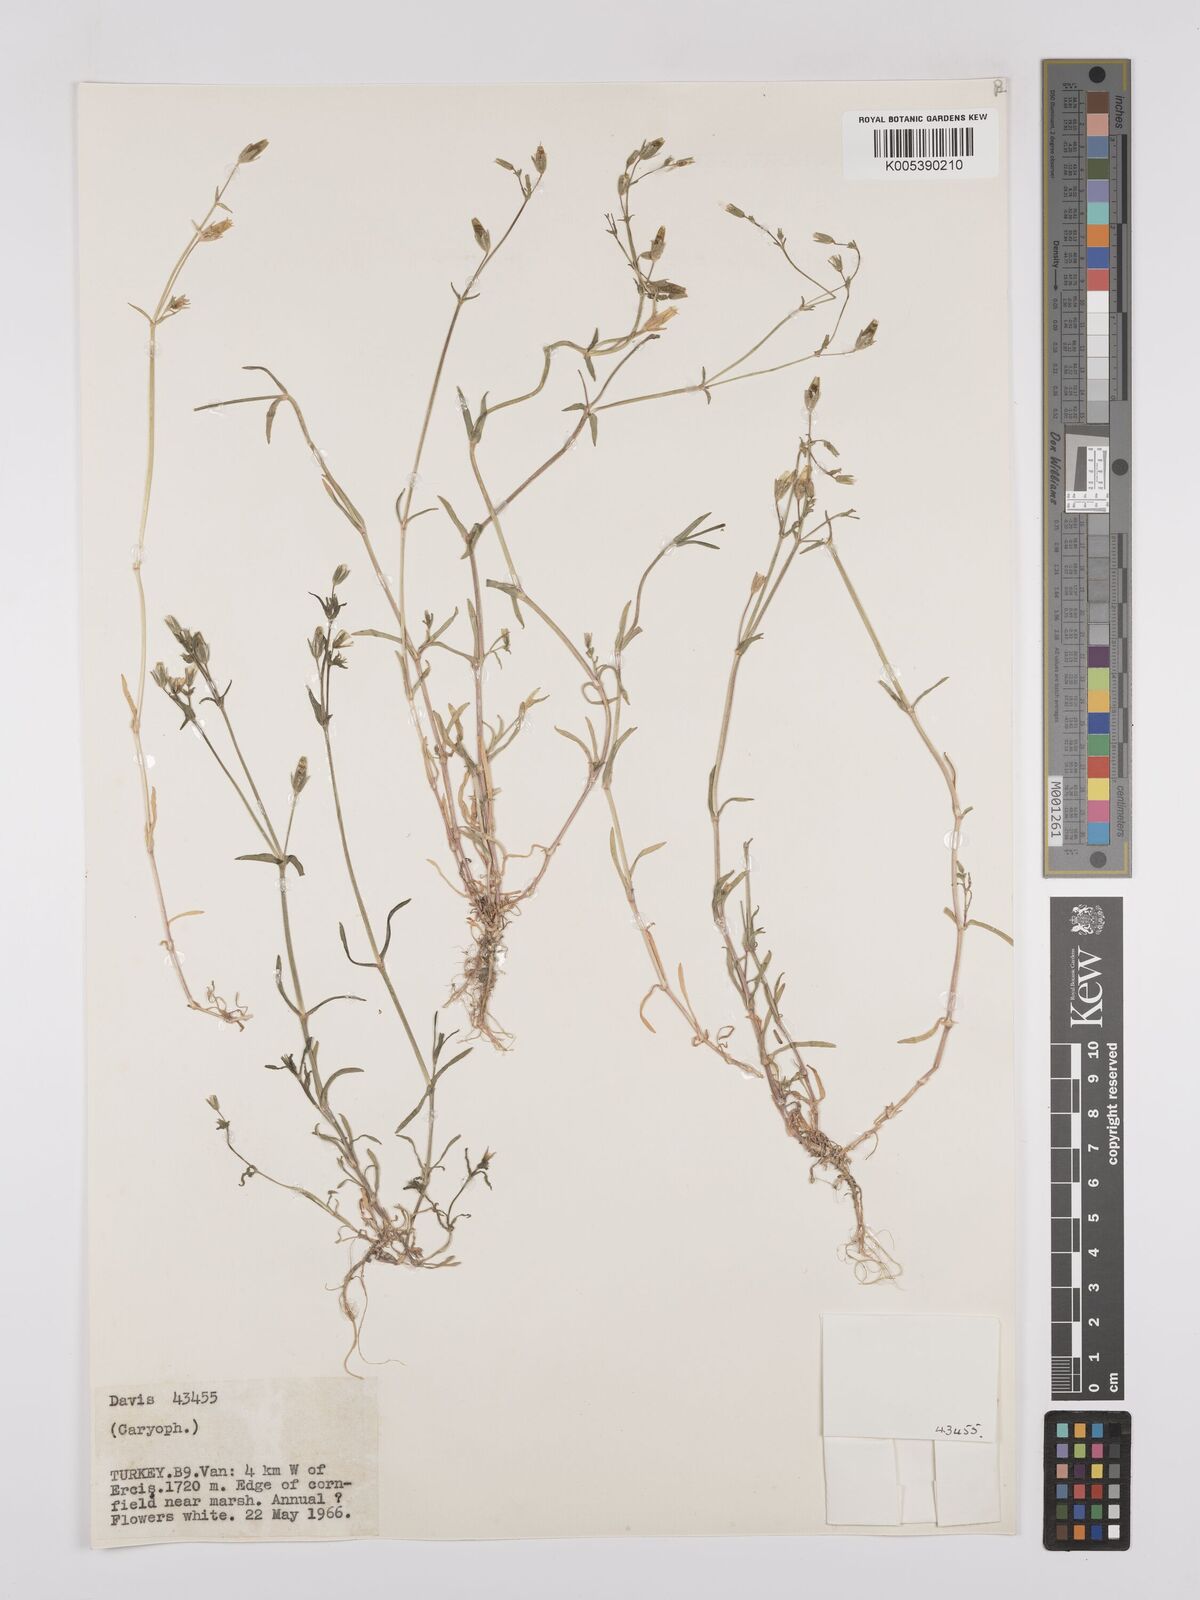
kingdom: Plantae
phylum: Tracheophyta
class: Magnoliopsida
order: Caryophyllales
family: Caryophyllaceae
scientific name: Caryophyllaceae
